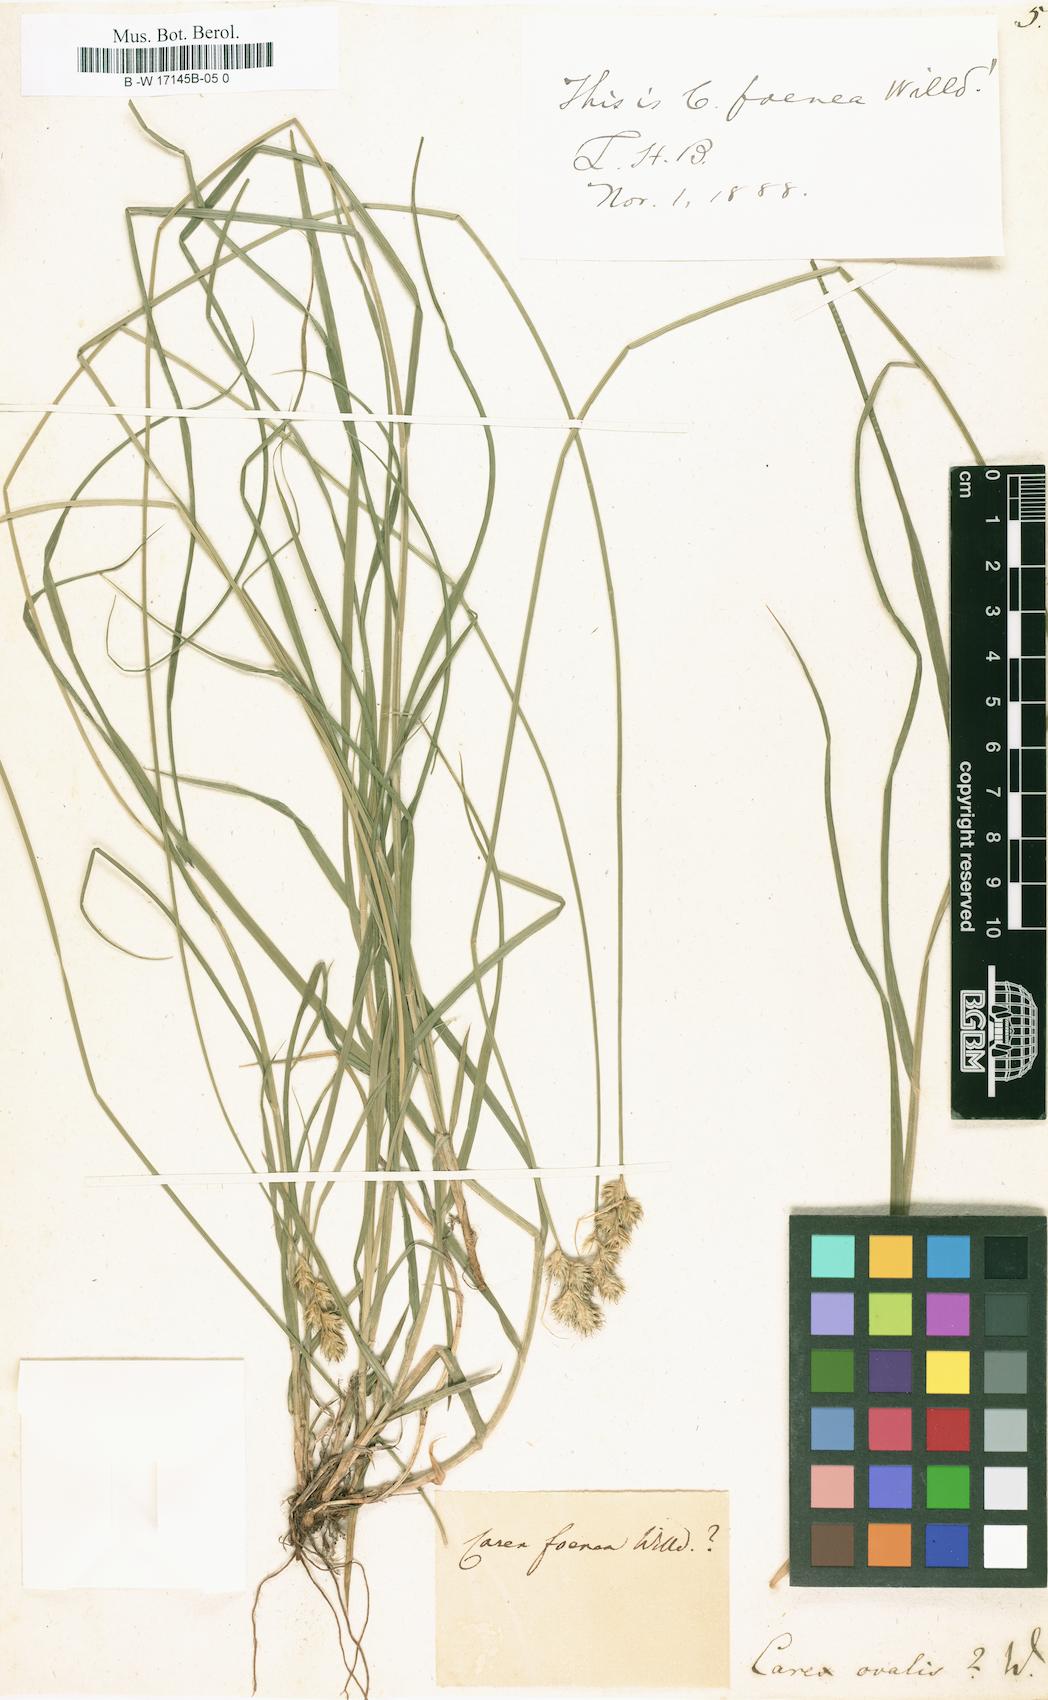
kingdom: Plantae
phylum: Tracheophyta
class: Liliopsida
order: Poales
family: Cyperaceae
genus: Carex
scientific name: Carex
